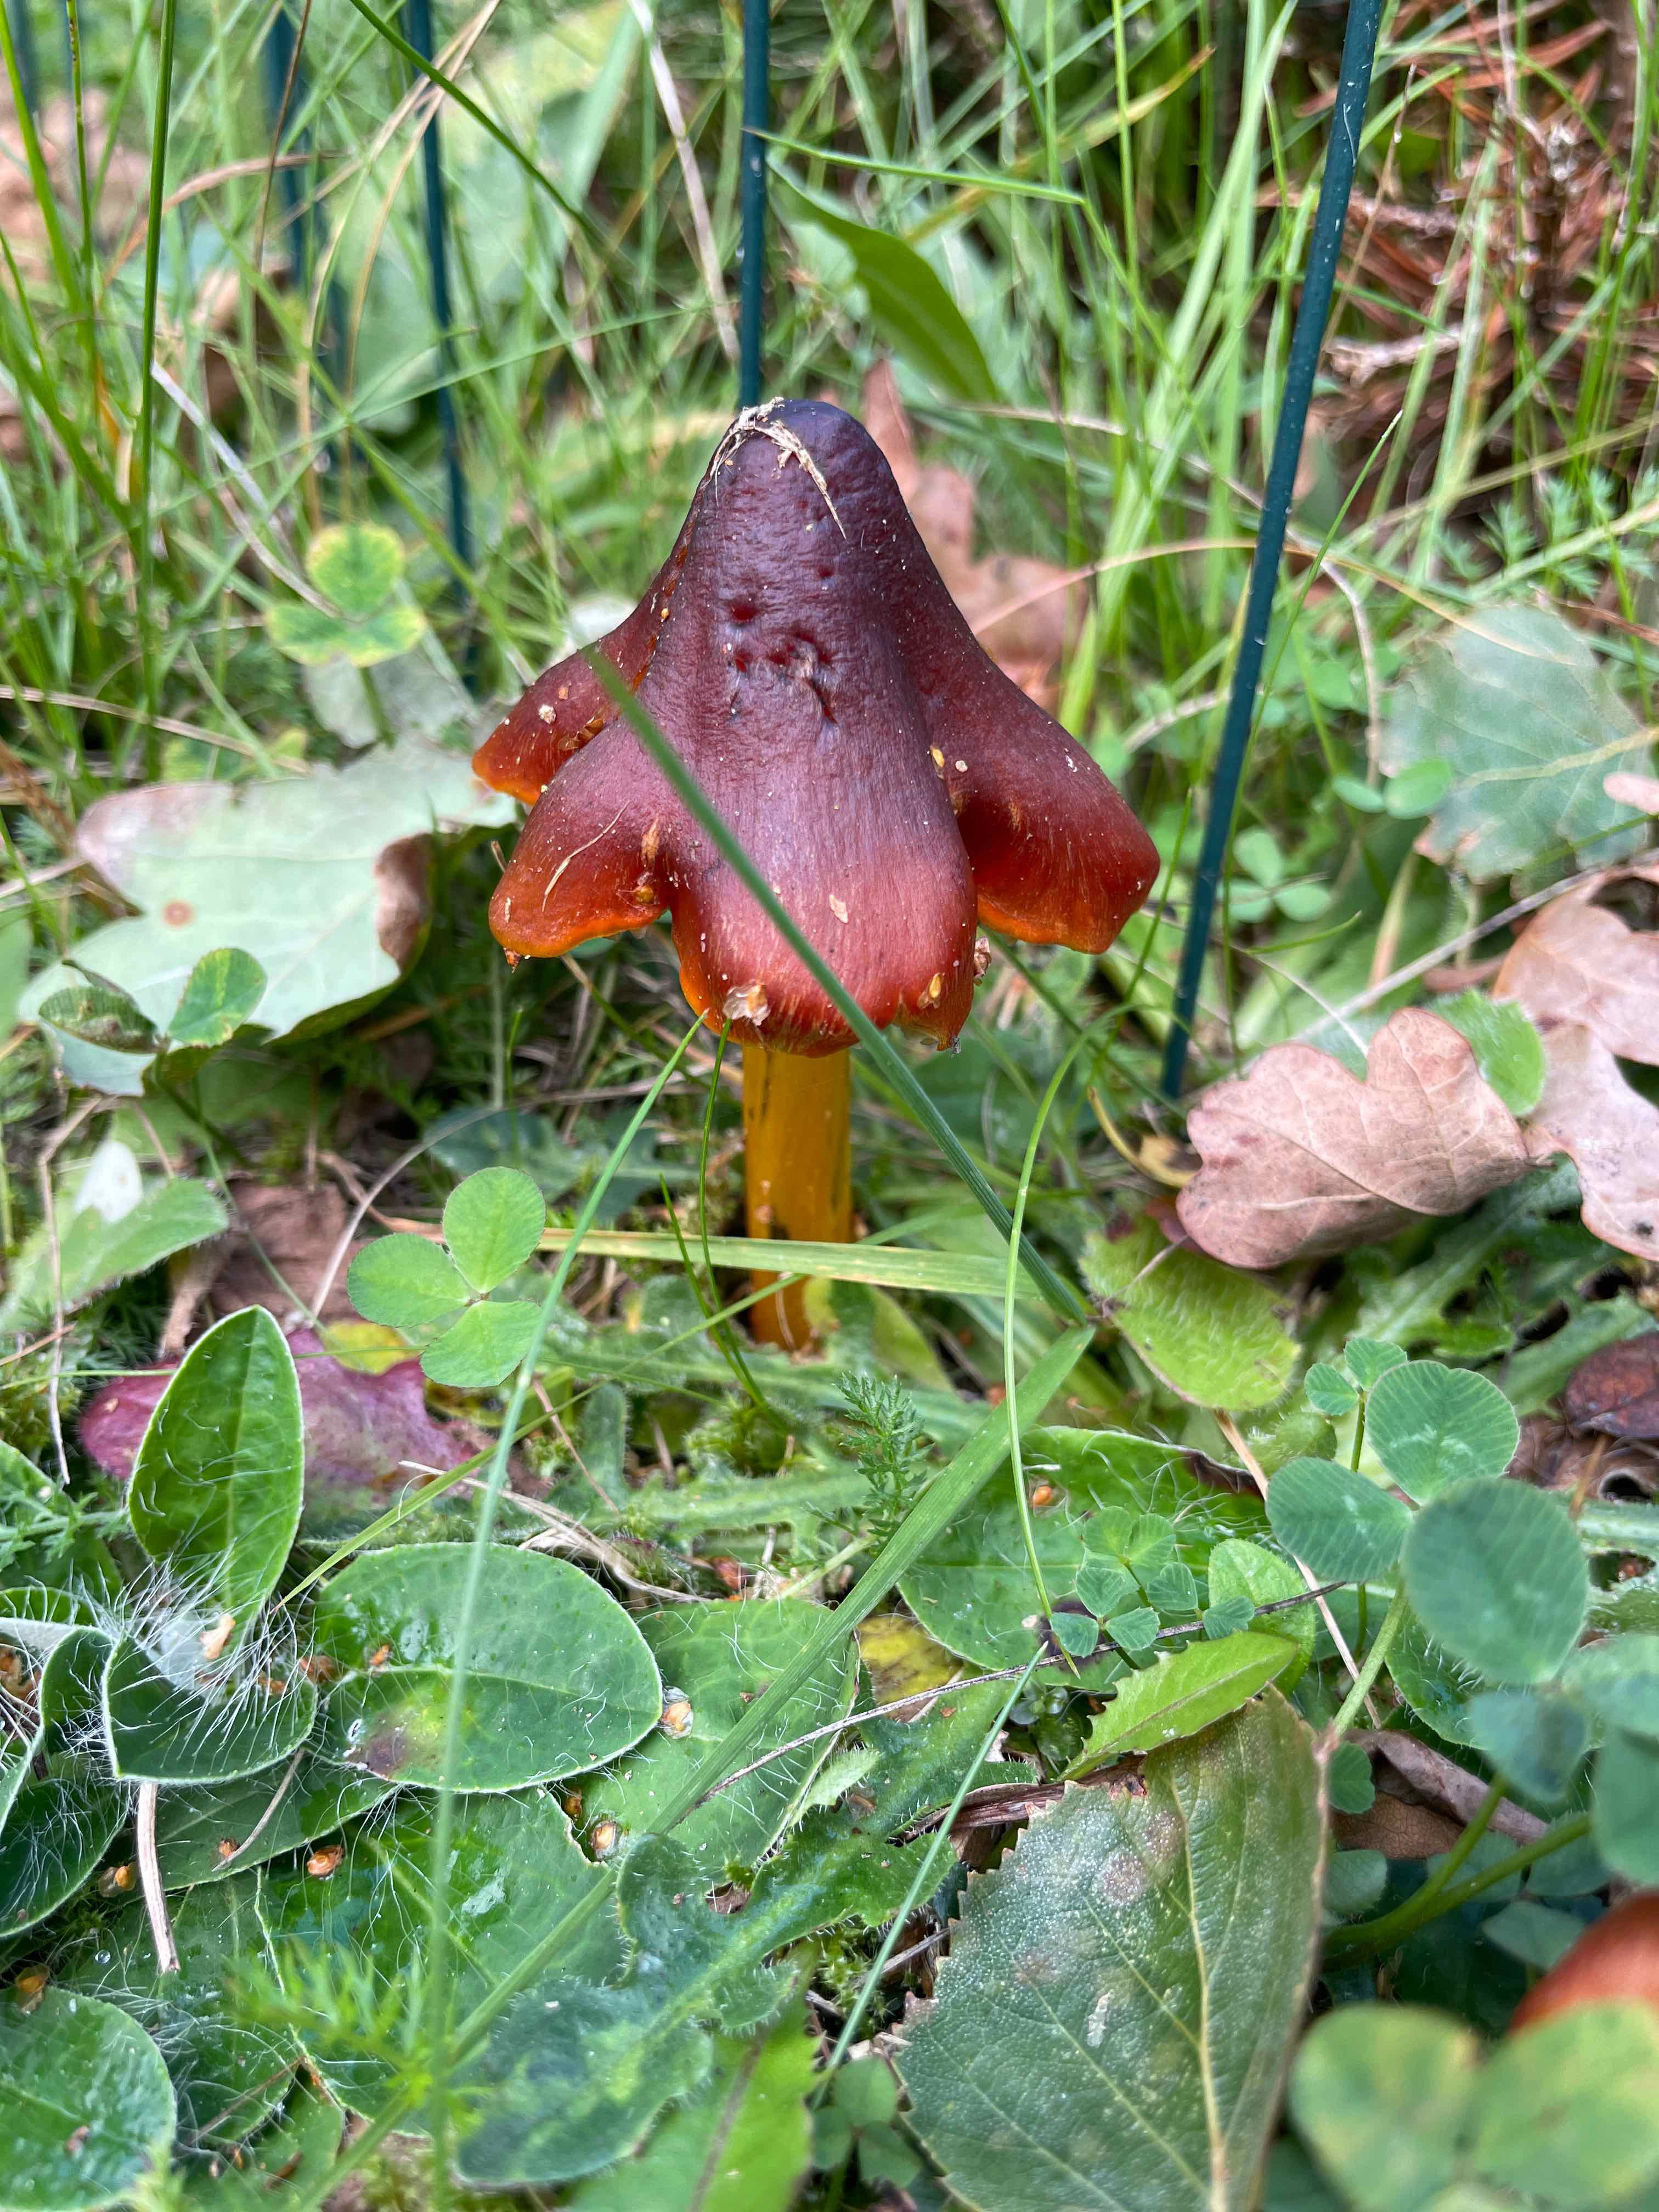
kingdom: Fungi
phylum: Basidiomycota
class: Agaricomycetes
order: Agaricales
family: Hygrophoraceae
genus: Hygrocybe
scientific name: Hygrocybe conica
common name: kegle-vokshat
